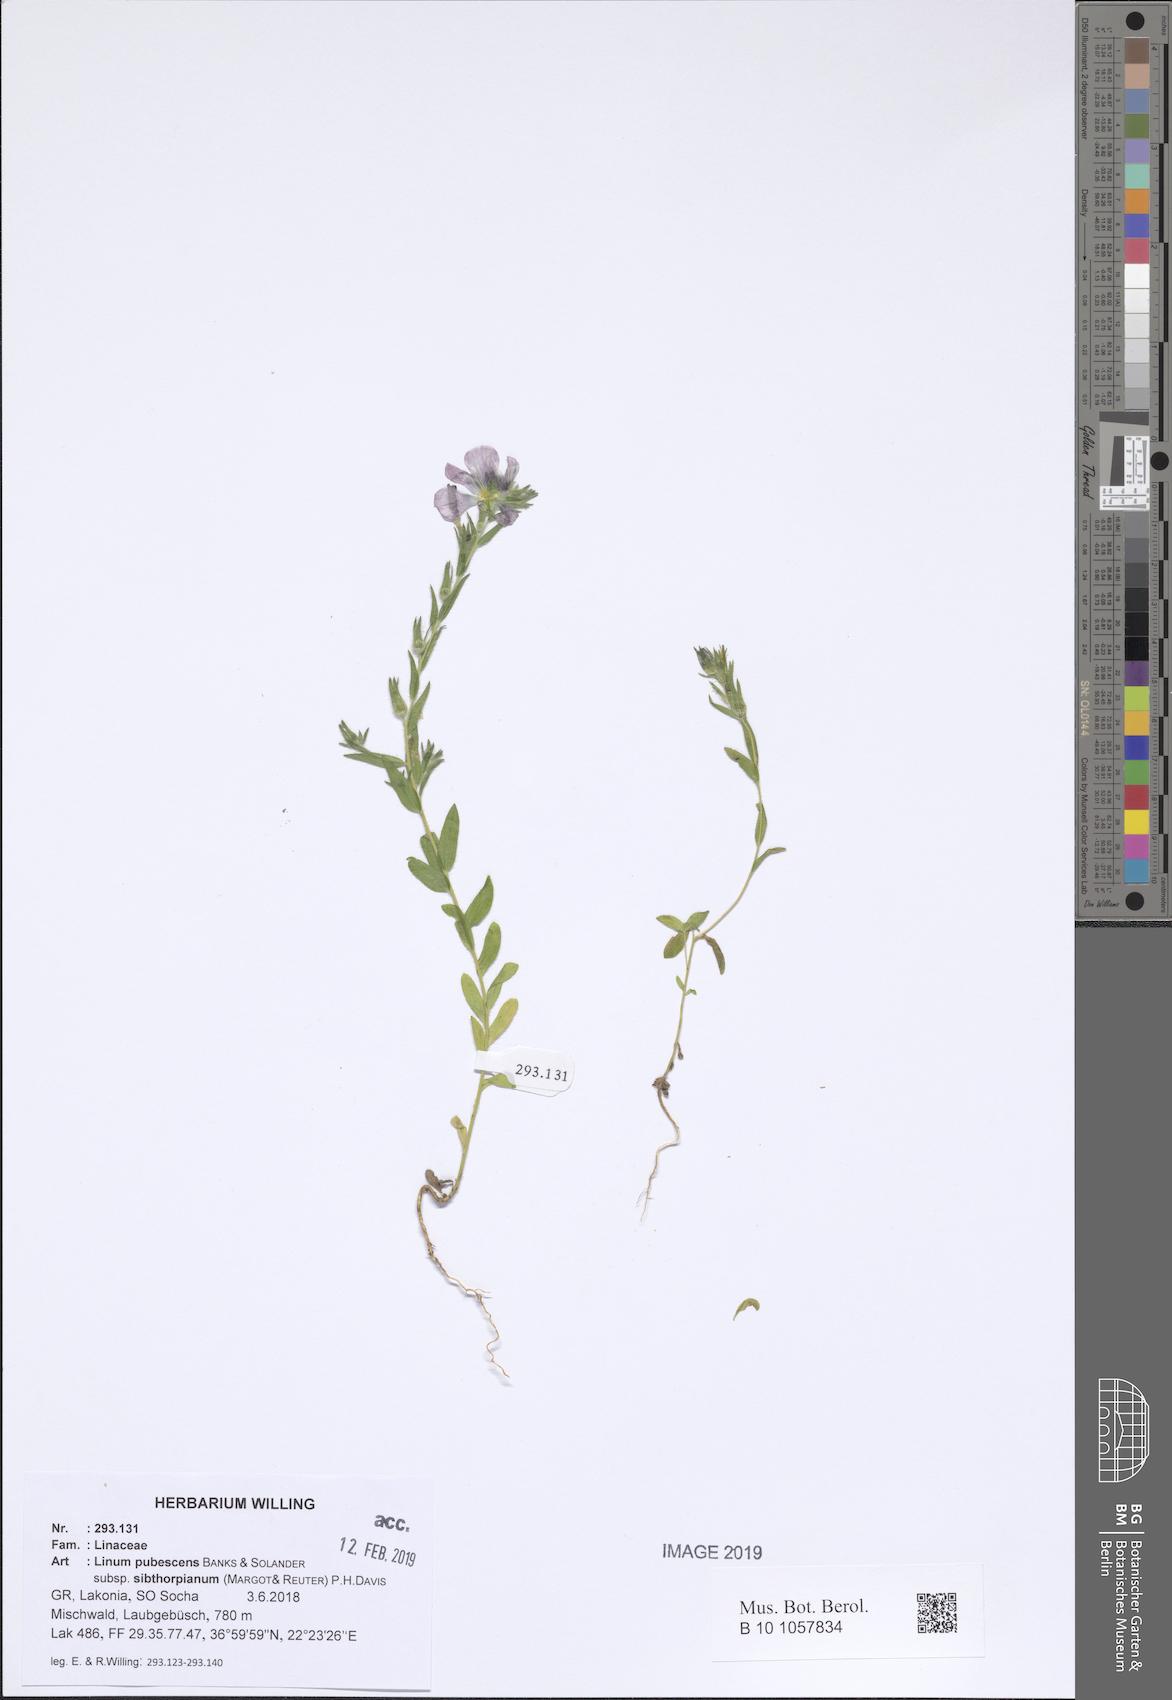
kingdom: Plantae
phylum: Tracheophyta
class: Magnoliopsida
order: Malpighiales
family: Linaceae
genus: Linum
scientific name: Linum pubescens
